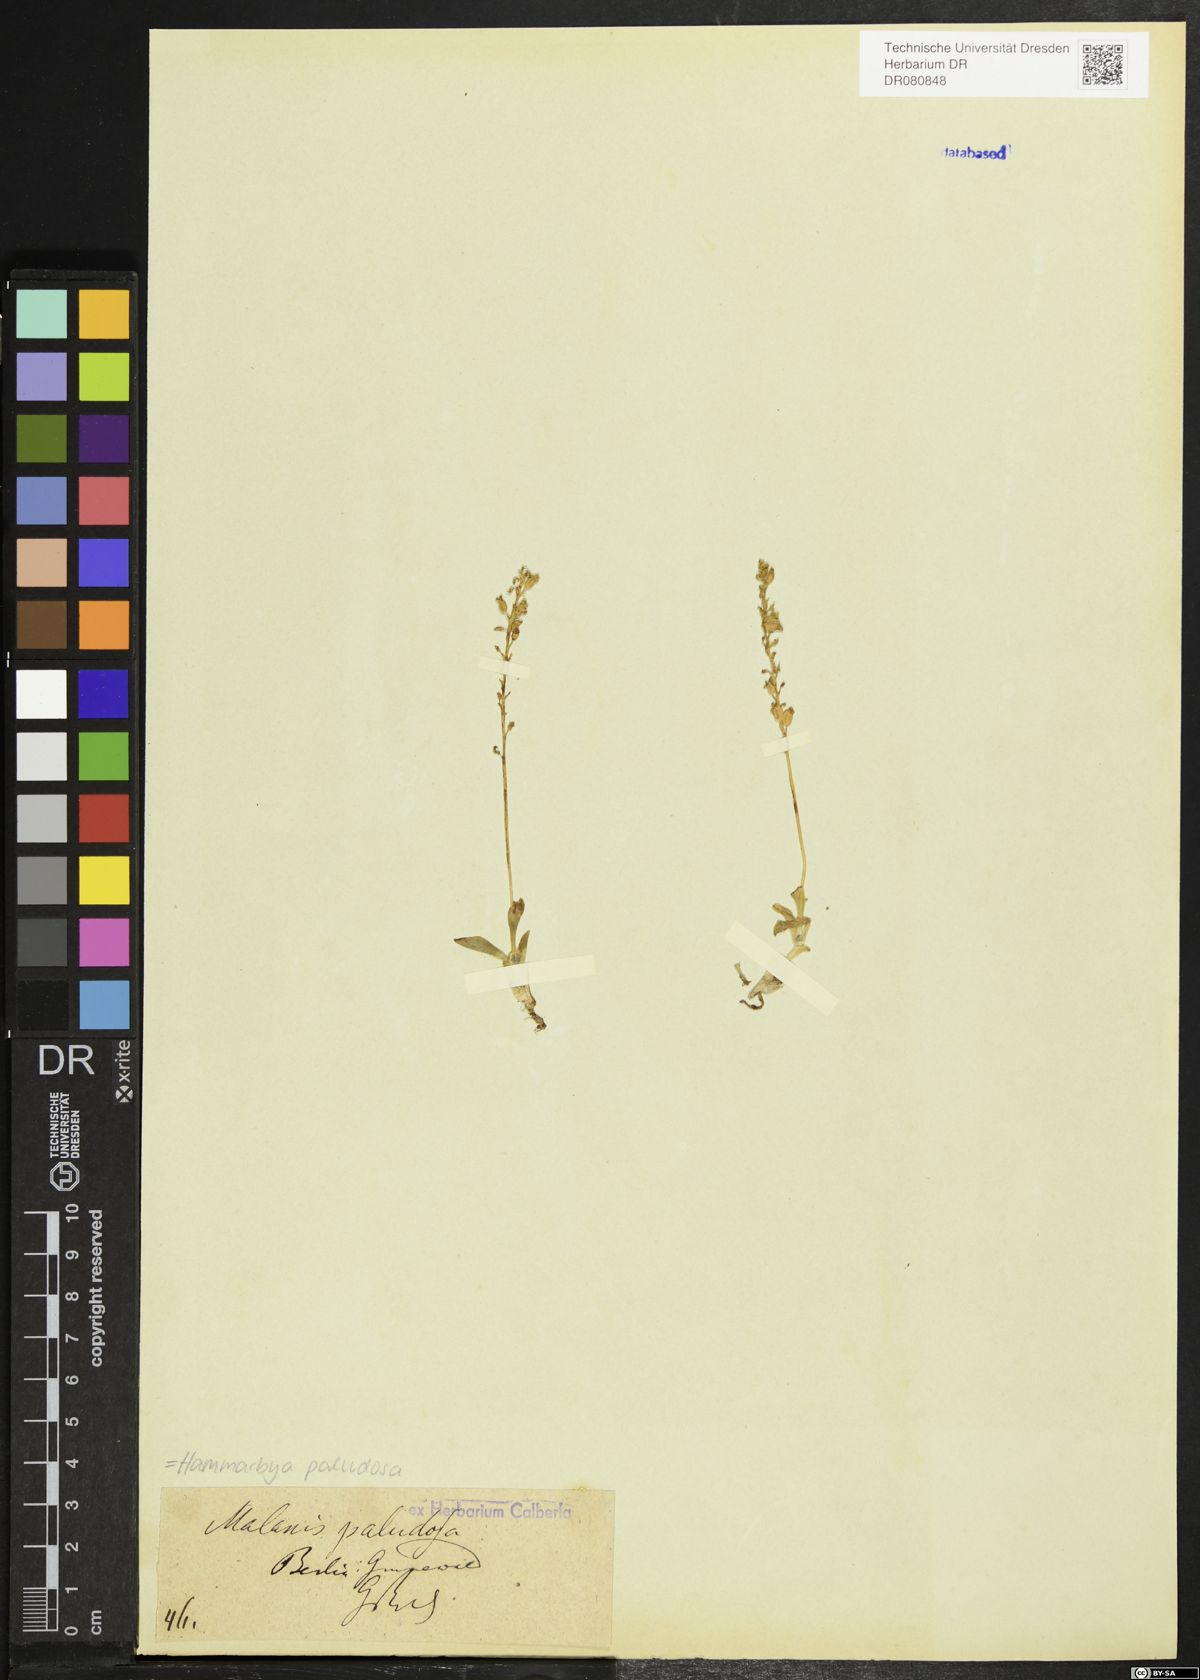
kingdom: Plantae
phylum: Tracheophyta
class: Liliopsida
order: Asparagales
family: Orchidaceae
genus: Hammarbya
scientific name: Hammarbya paludosa
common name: Bog orchid
